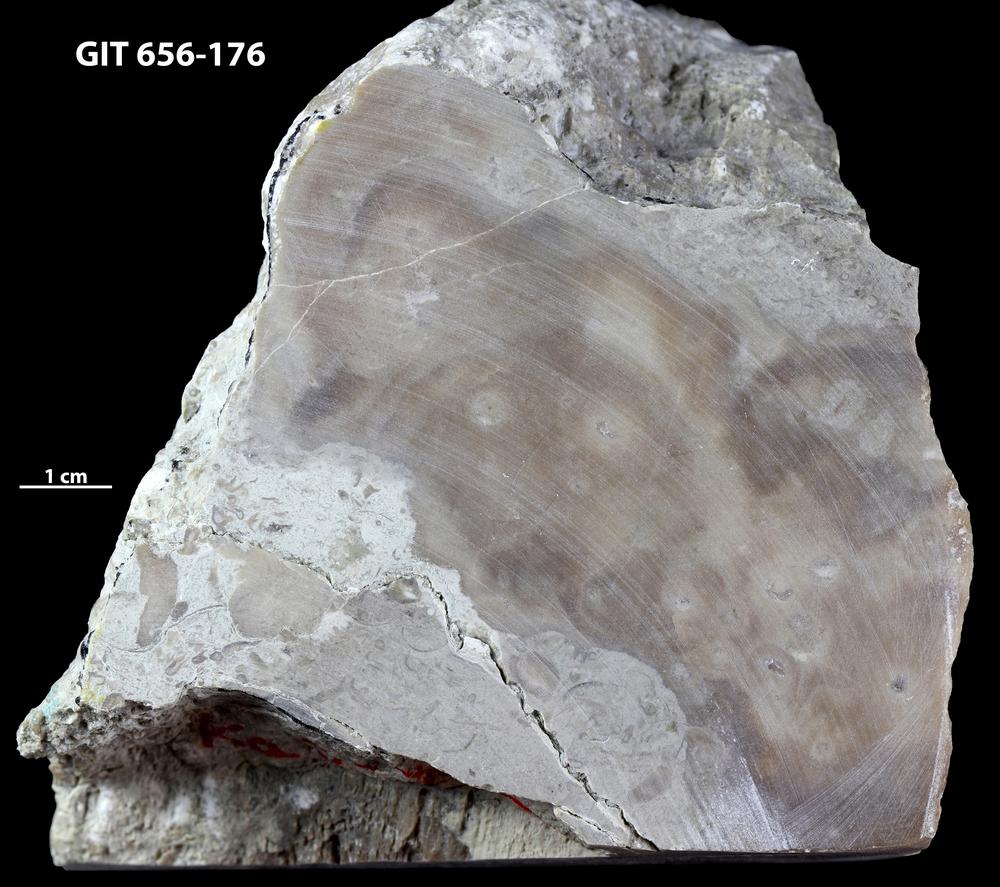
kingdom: Animalia
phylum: Porifera
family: Stromatoporidae
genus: Stromatopora
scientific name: Stromatopora
